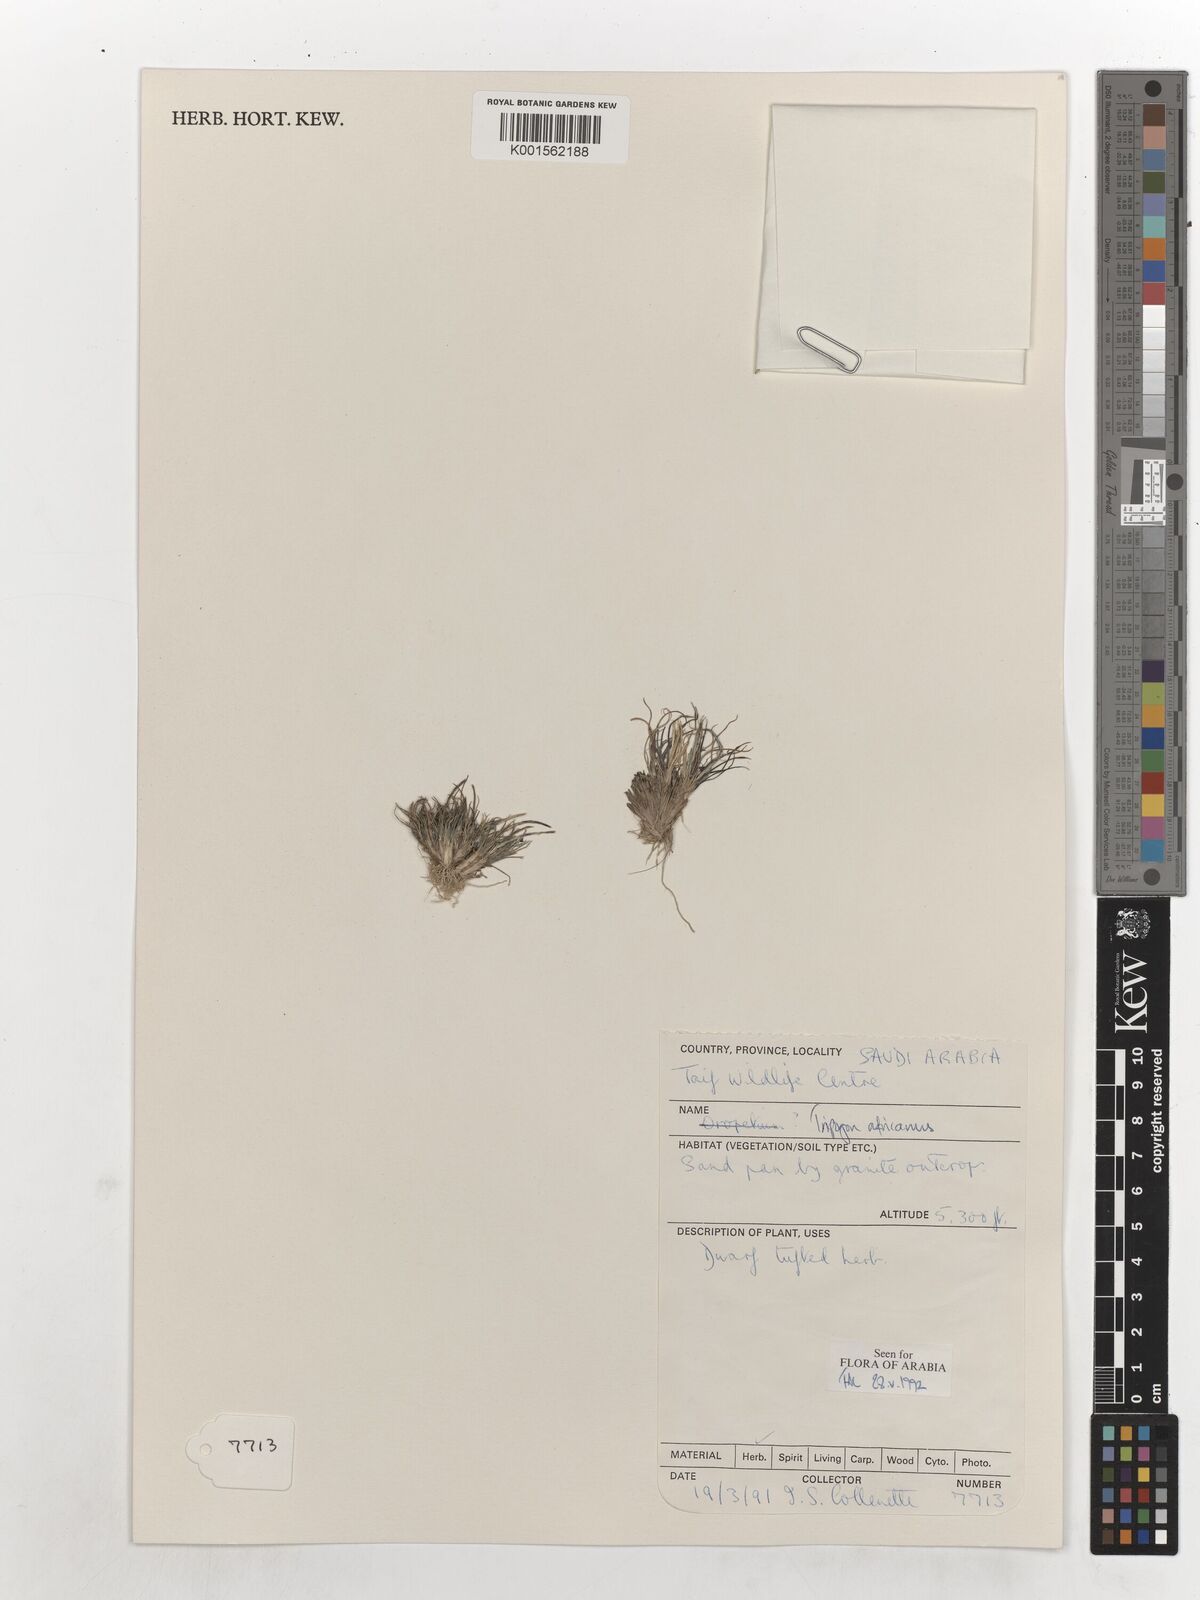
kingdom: Plantae
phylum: Tracheophyta
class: Liliopsida
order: Poales
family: Poaceae
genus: Tripogon
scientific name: Tripogon africanus
